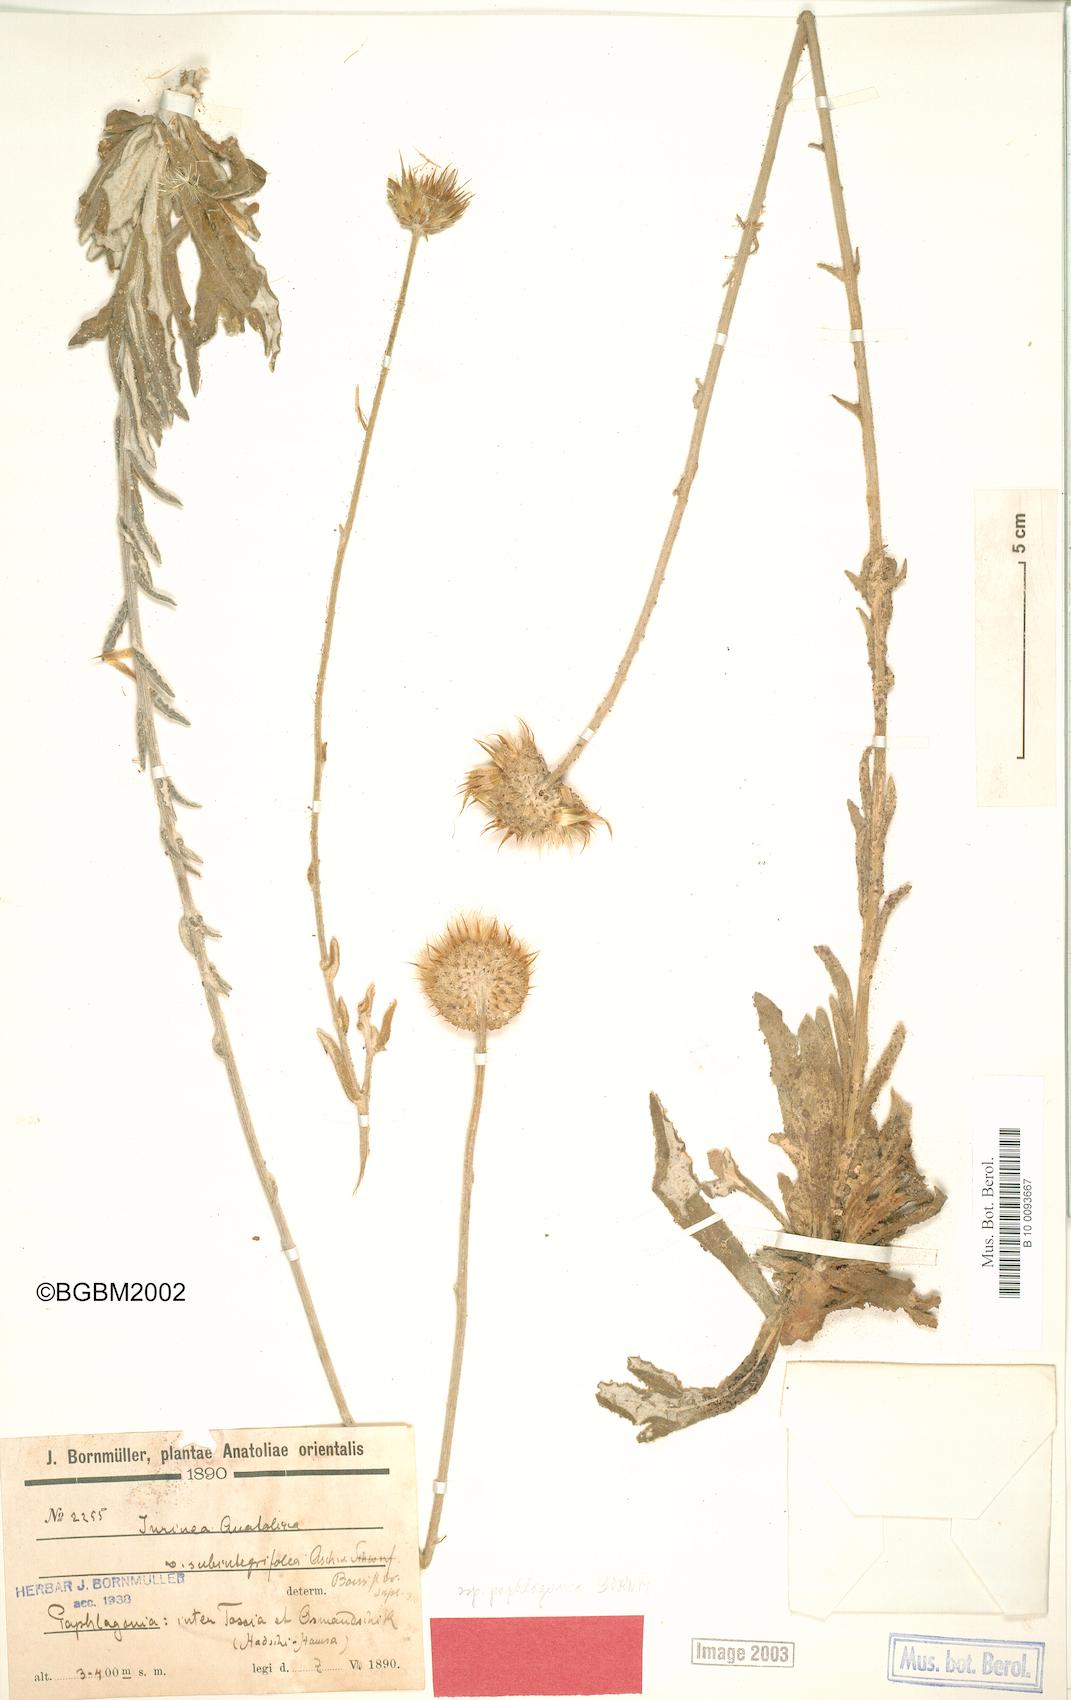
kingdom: Plantae
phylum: Tracheophyta
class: Magnoliopsida
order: Asterales
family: Asteraceae
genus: Jurinea
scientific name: Jurinea pontica
